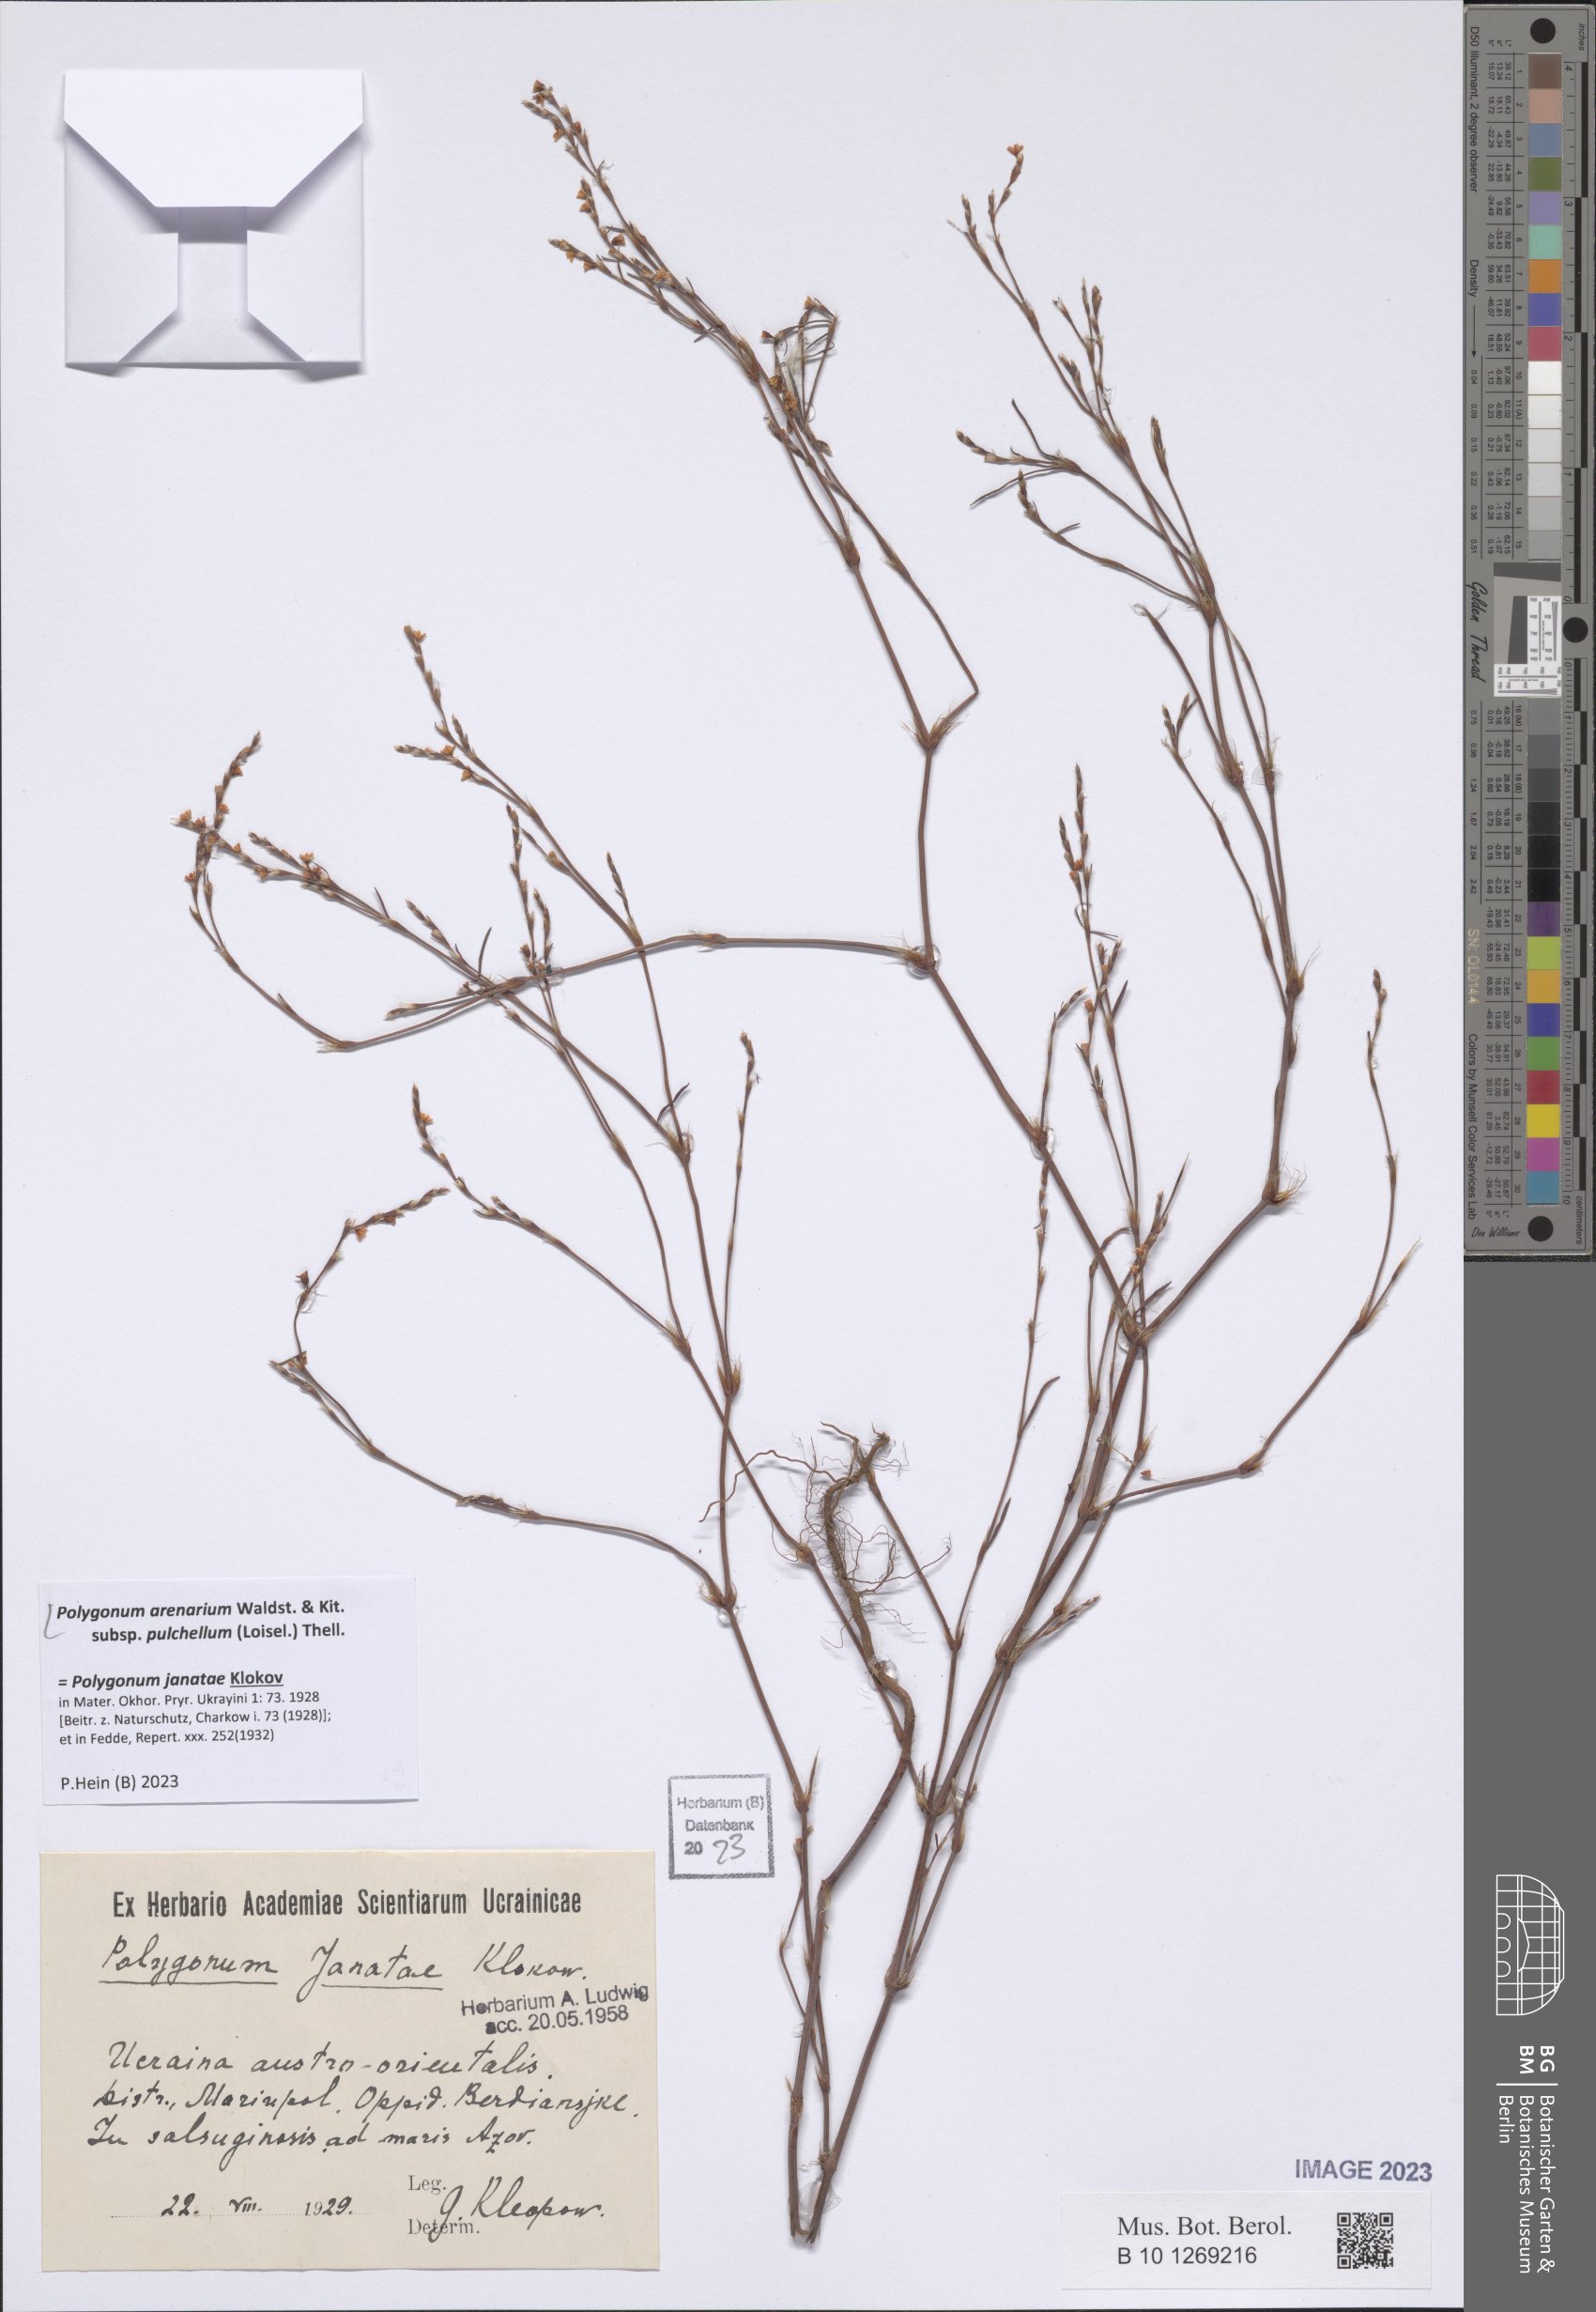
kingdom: Plantae
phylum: Tracheophyta
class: Magnoliopsida
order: Caryophyllales
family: Polygonaceae
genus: Polygonum
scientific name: Polygonum arenarium
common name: Lesser red-knotgrass
